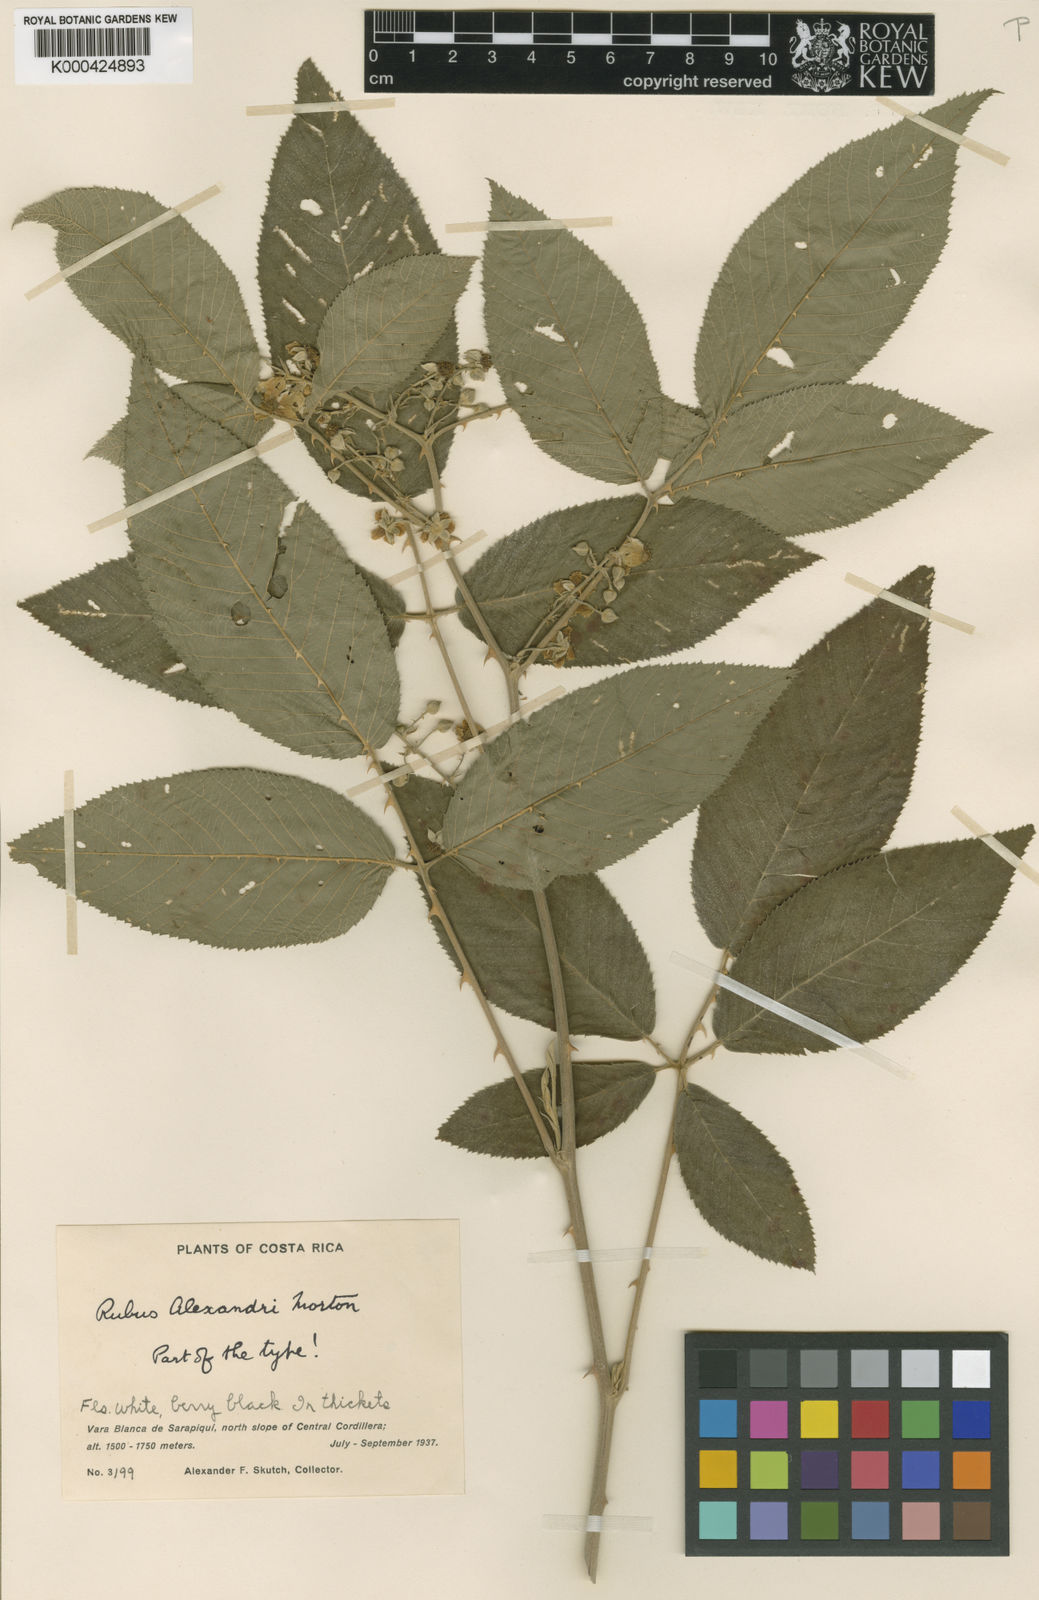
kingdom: Plantae
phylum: Tracheophyta
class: Magnoliopsida
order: Rosales
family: Rosaceae
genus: Rubus
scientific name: Rubus
